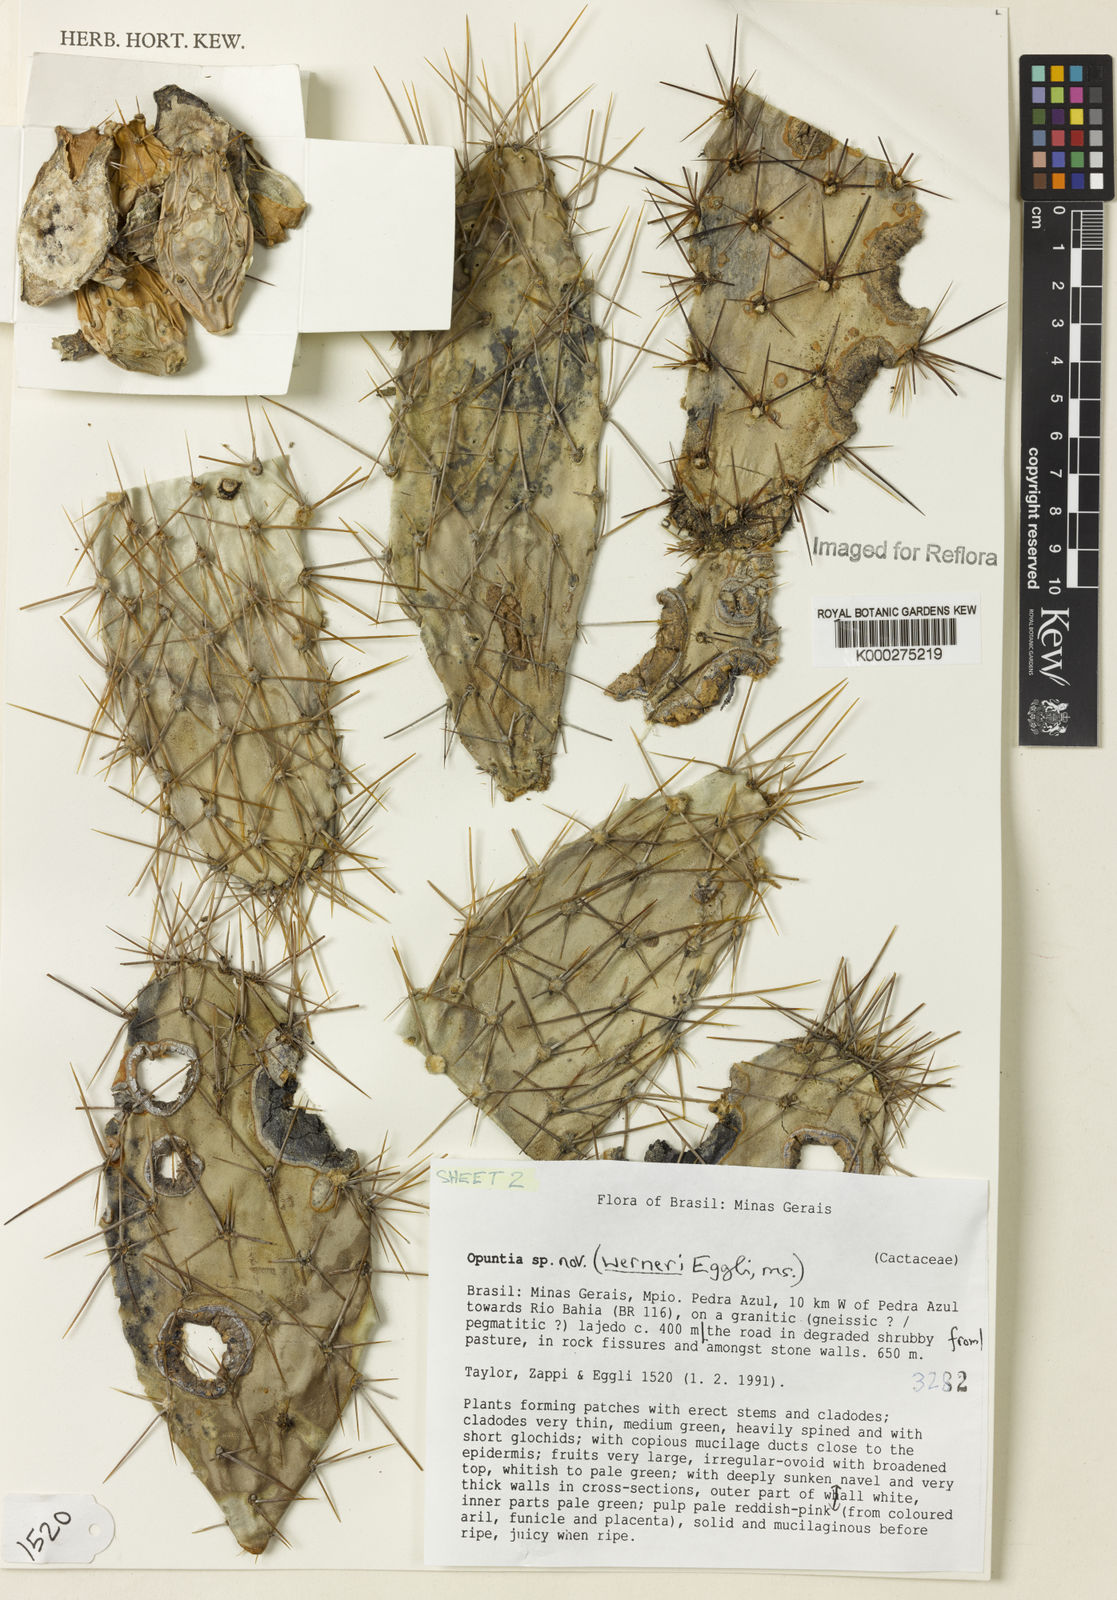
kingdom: Plantae
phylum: Tracheophyta
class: Magnoliopsida
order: Caryophyllales
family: Cactaceae
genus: Tacinga
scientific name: Tacinga werneri
